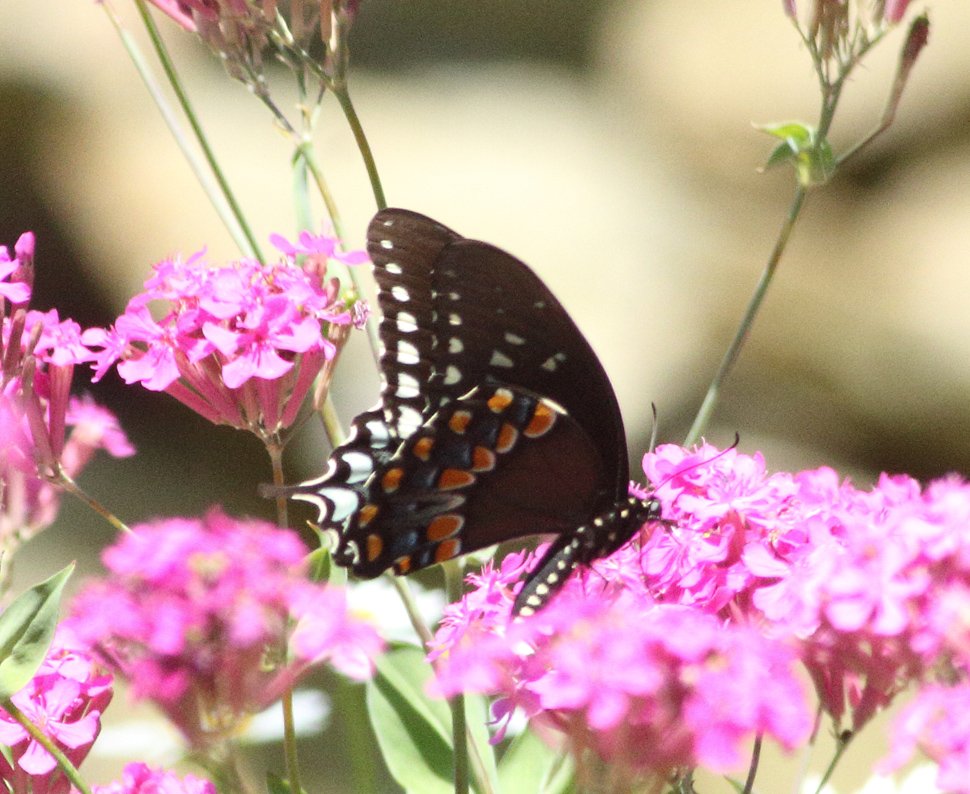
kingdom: Animalia
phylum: Arthropoda
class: Insecta
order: Lepidoptera
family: Papilionidae
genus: Pterourus
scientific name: Pterourus troilus
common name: Spicebush Swallowtail
